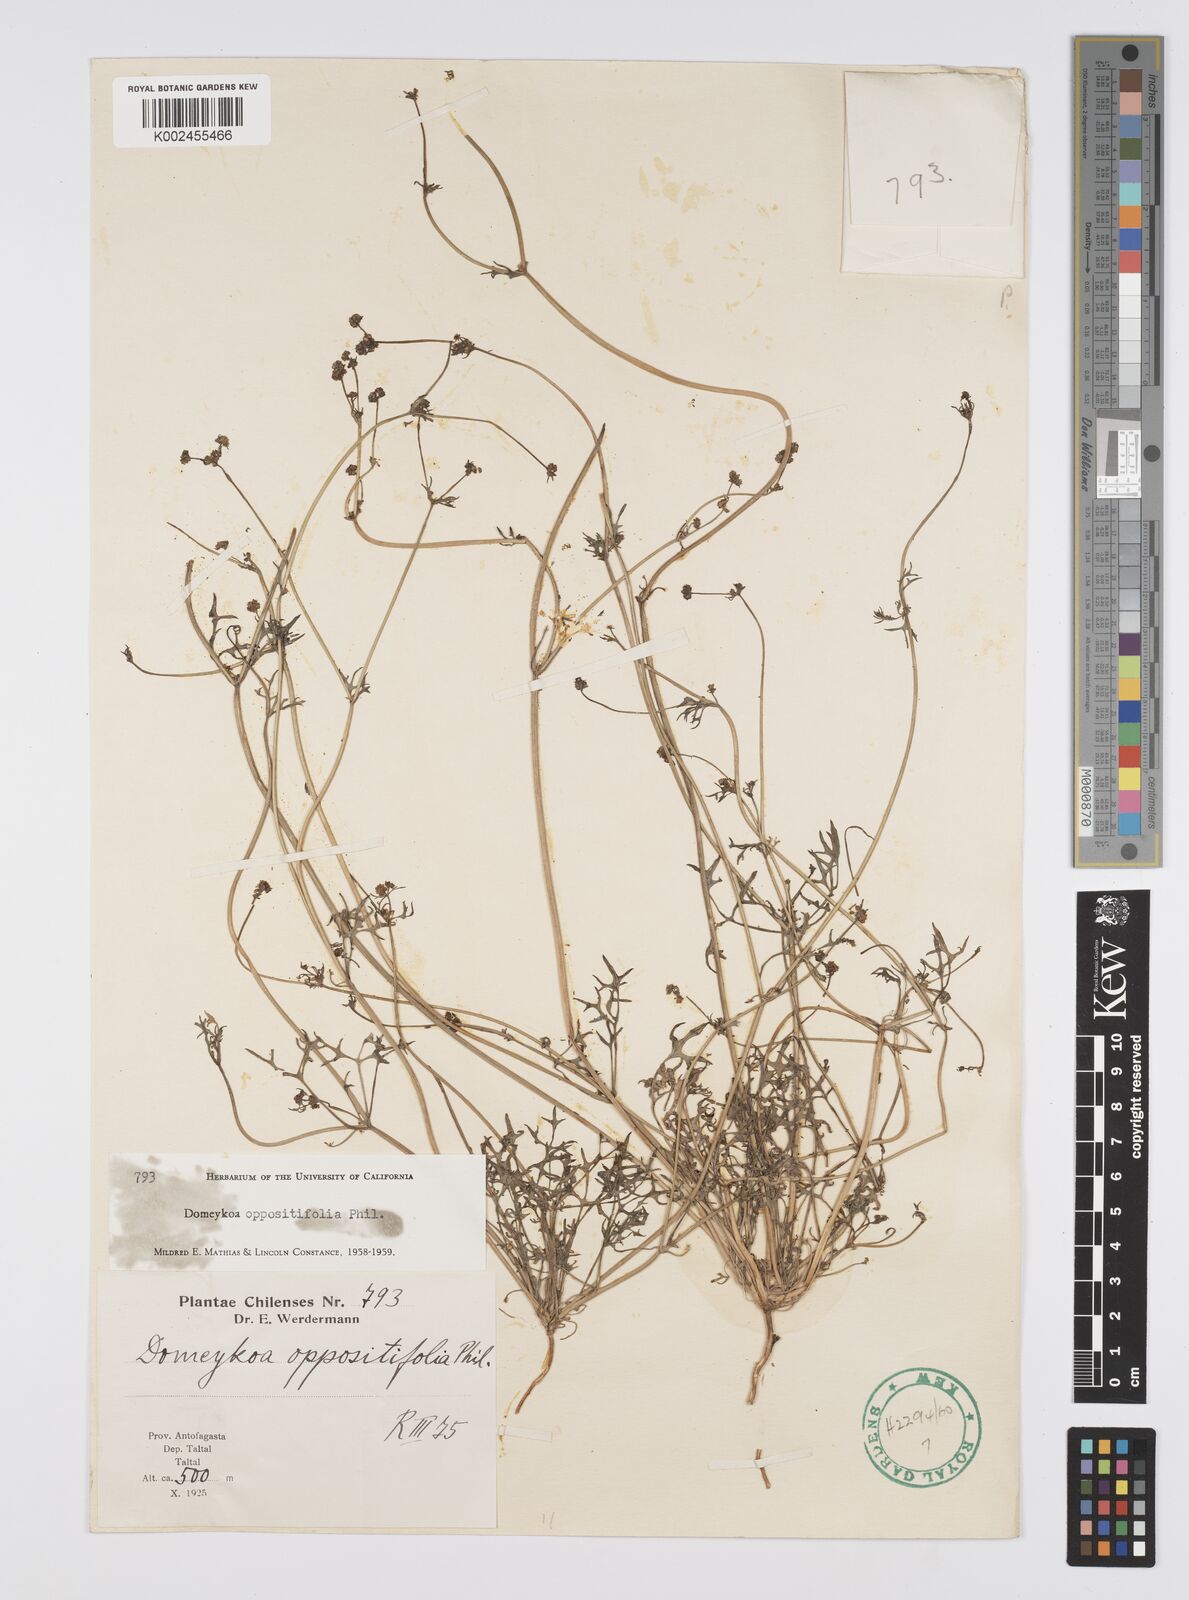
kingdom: Plantae
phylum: Tracheophyta
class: Magnoliopsida
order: Apiales
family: Apiaceae
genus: Domeykoa
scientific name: Domeykoa oppositifolia
